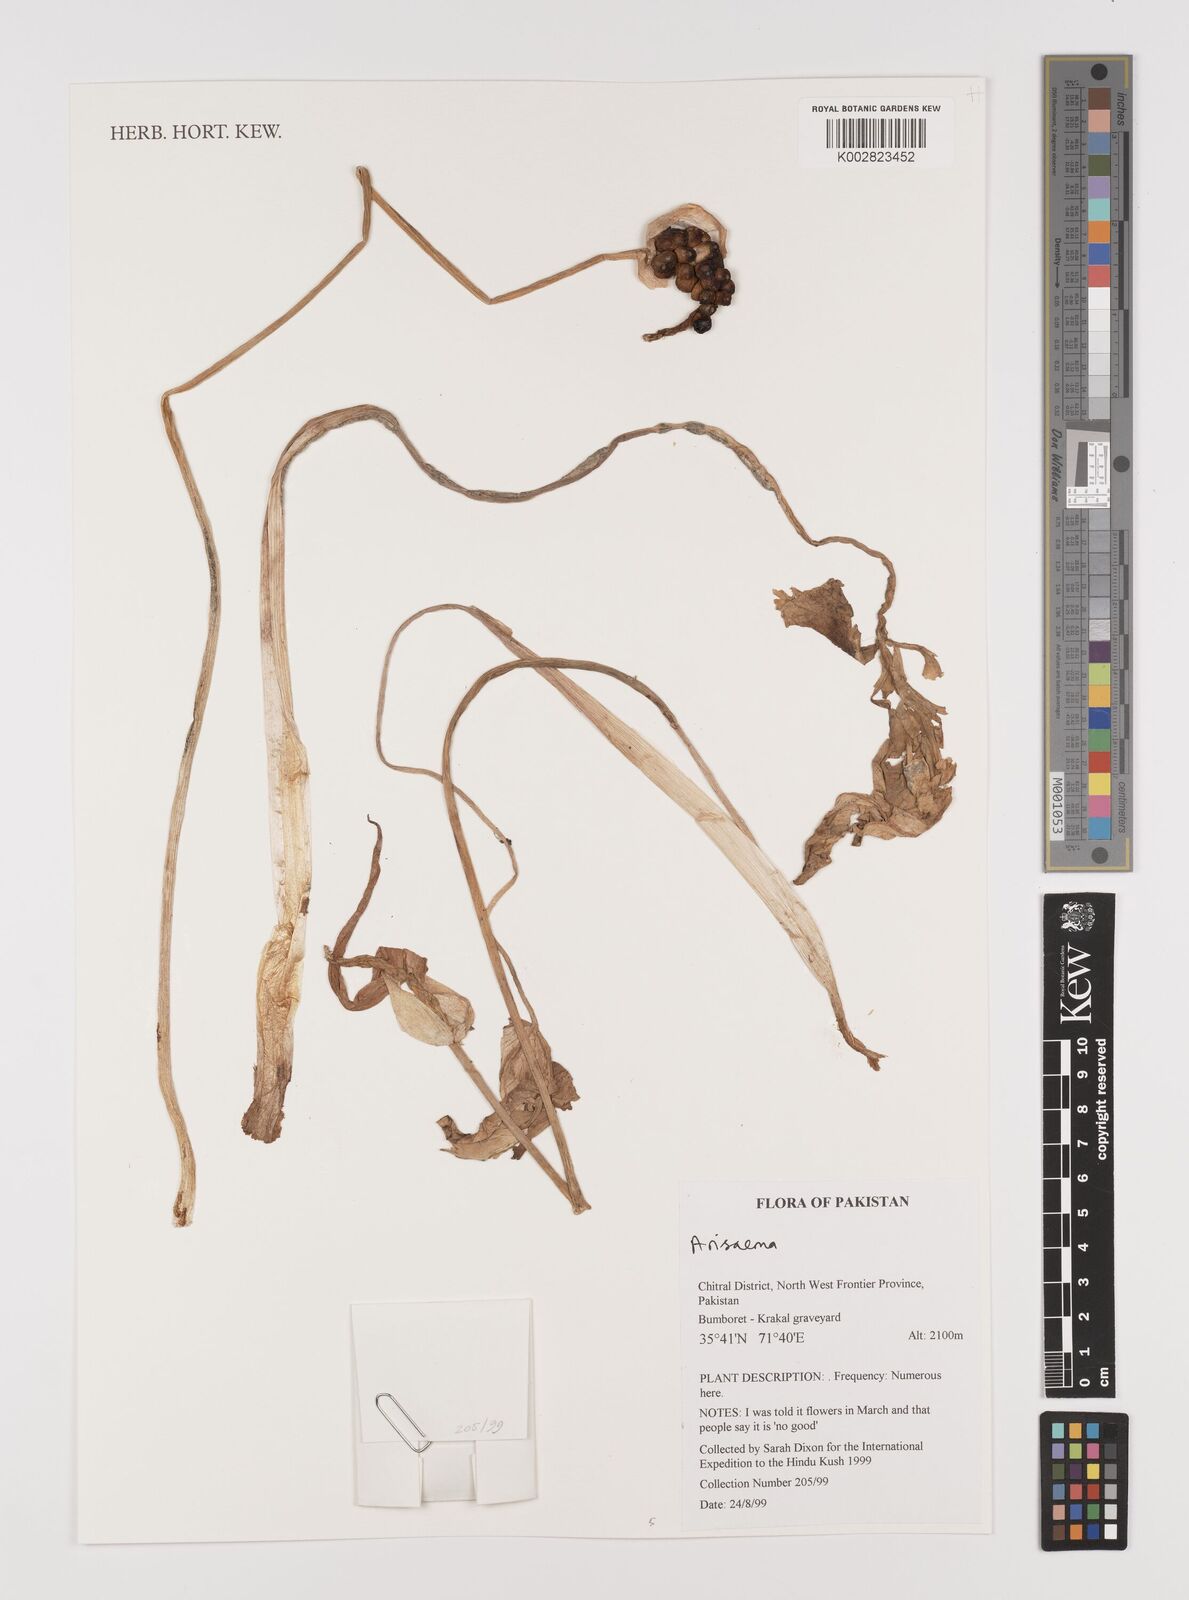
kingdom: Plantae
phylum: Tracheophyta
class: Liliopsida
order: Alismatales
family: Araceae
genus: Arisaema
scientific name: Arisaema
